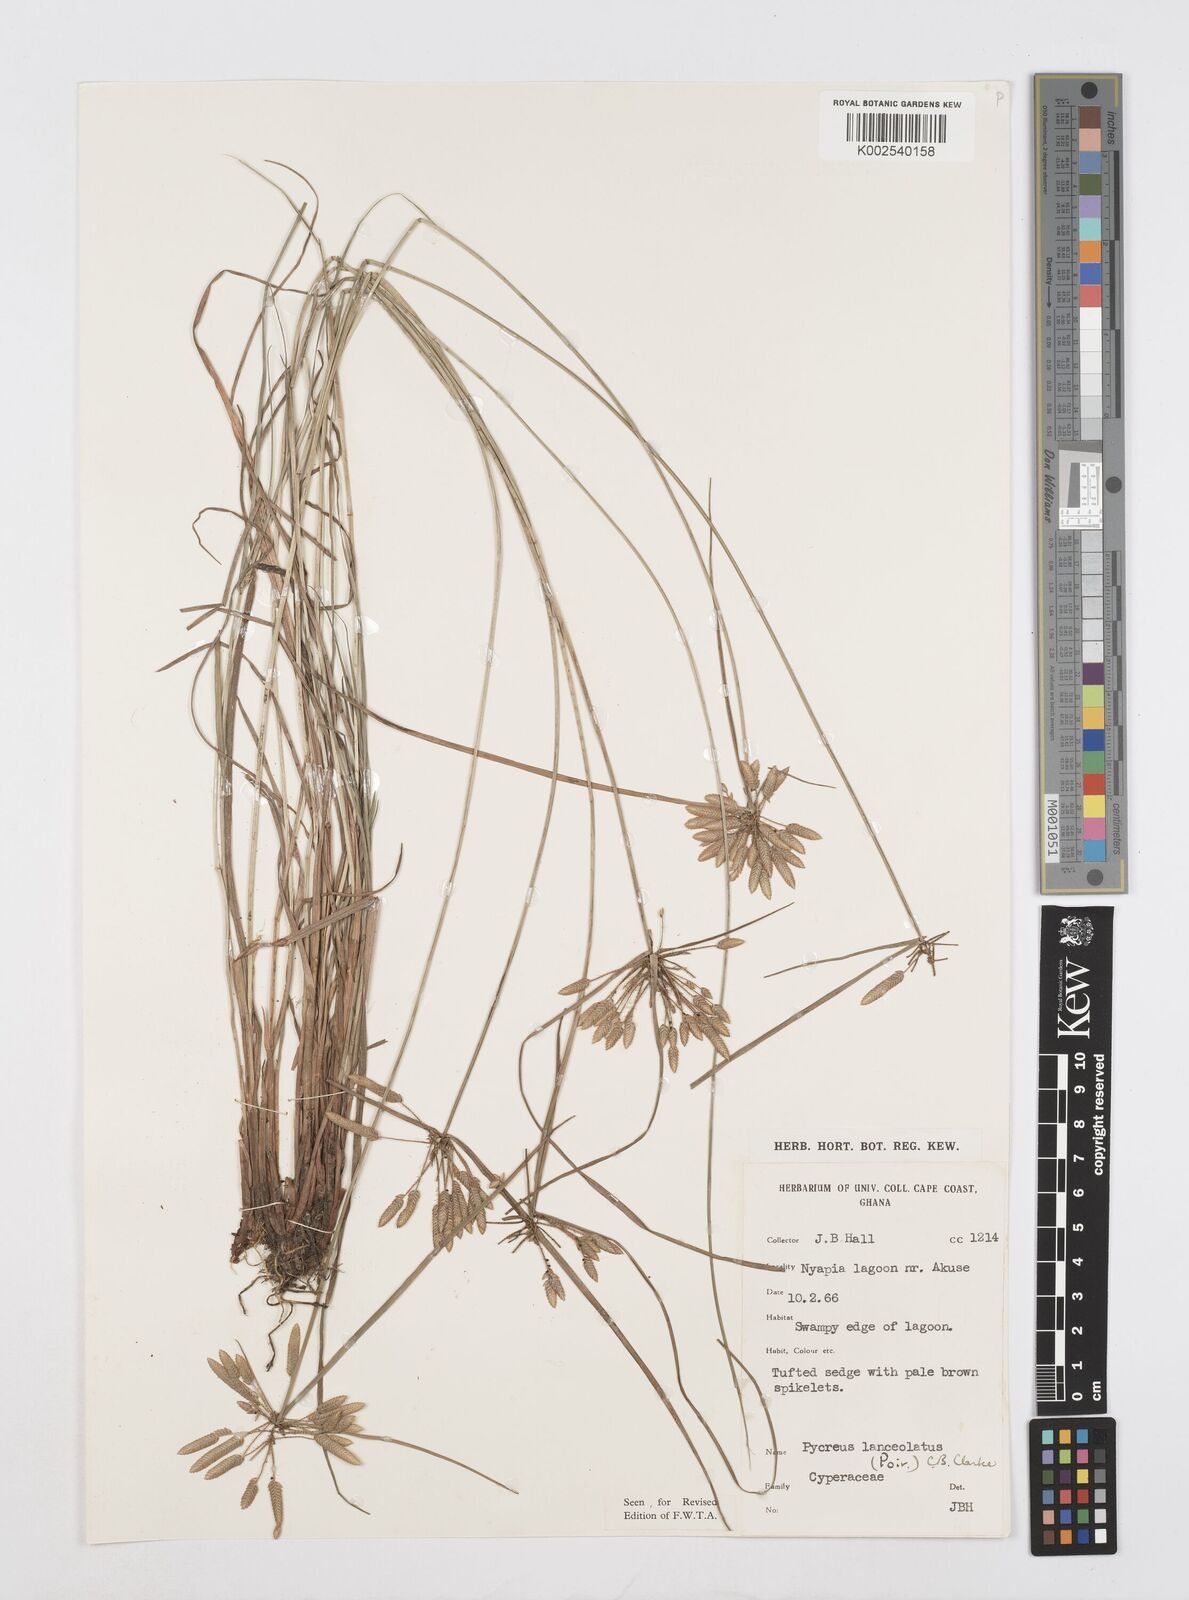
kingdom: Plantae
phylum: Tracheophyta
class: Liliopsida
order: Poales
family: Cyperaceae
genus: Cyperus
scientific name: Cyperus
